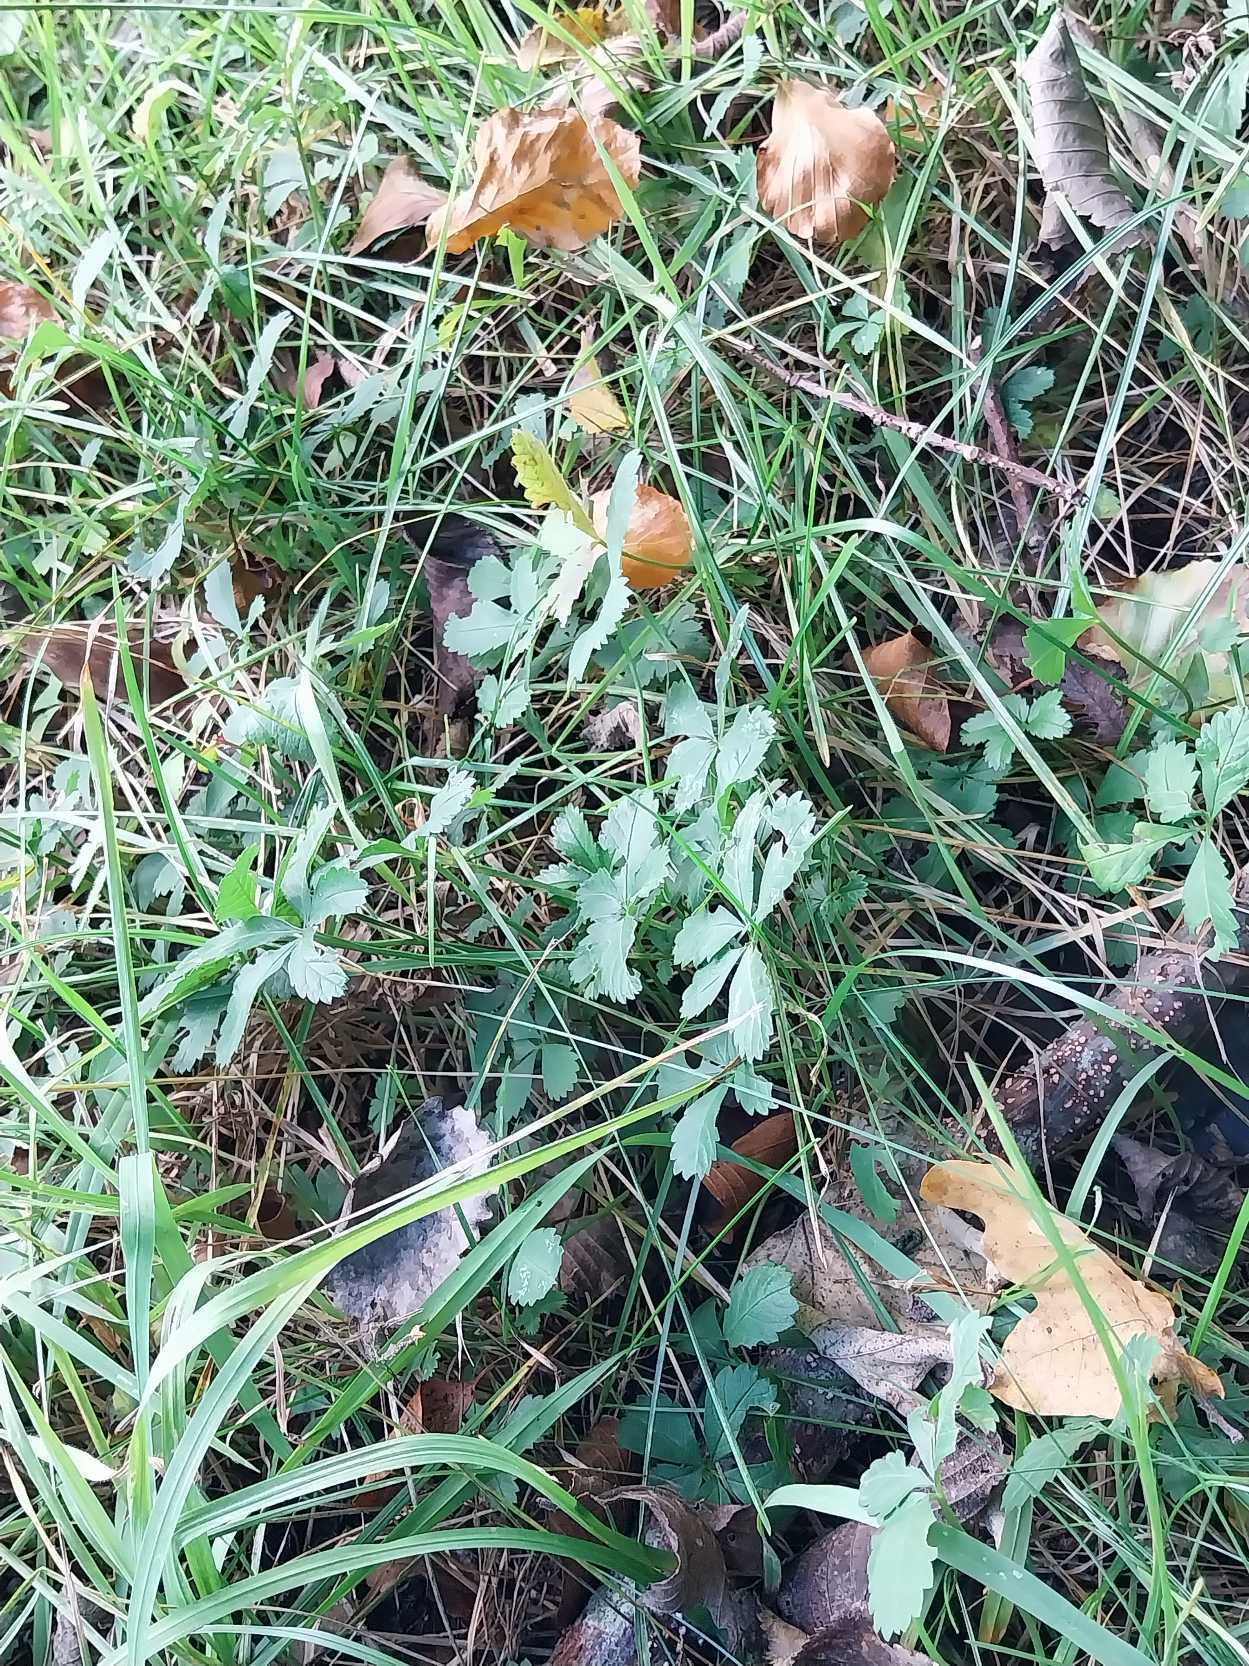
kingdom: Plantae
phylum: Tracheophyta
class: Magnoliopsida
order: Rosales
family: Rosaceae
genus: Potentilla
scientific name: Potentilla reptans
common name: Krybende potentil
